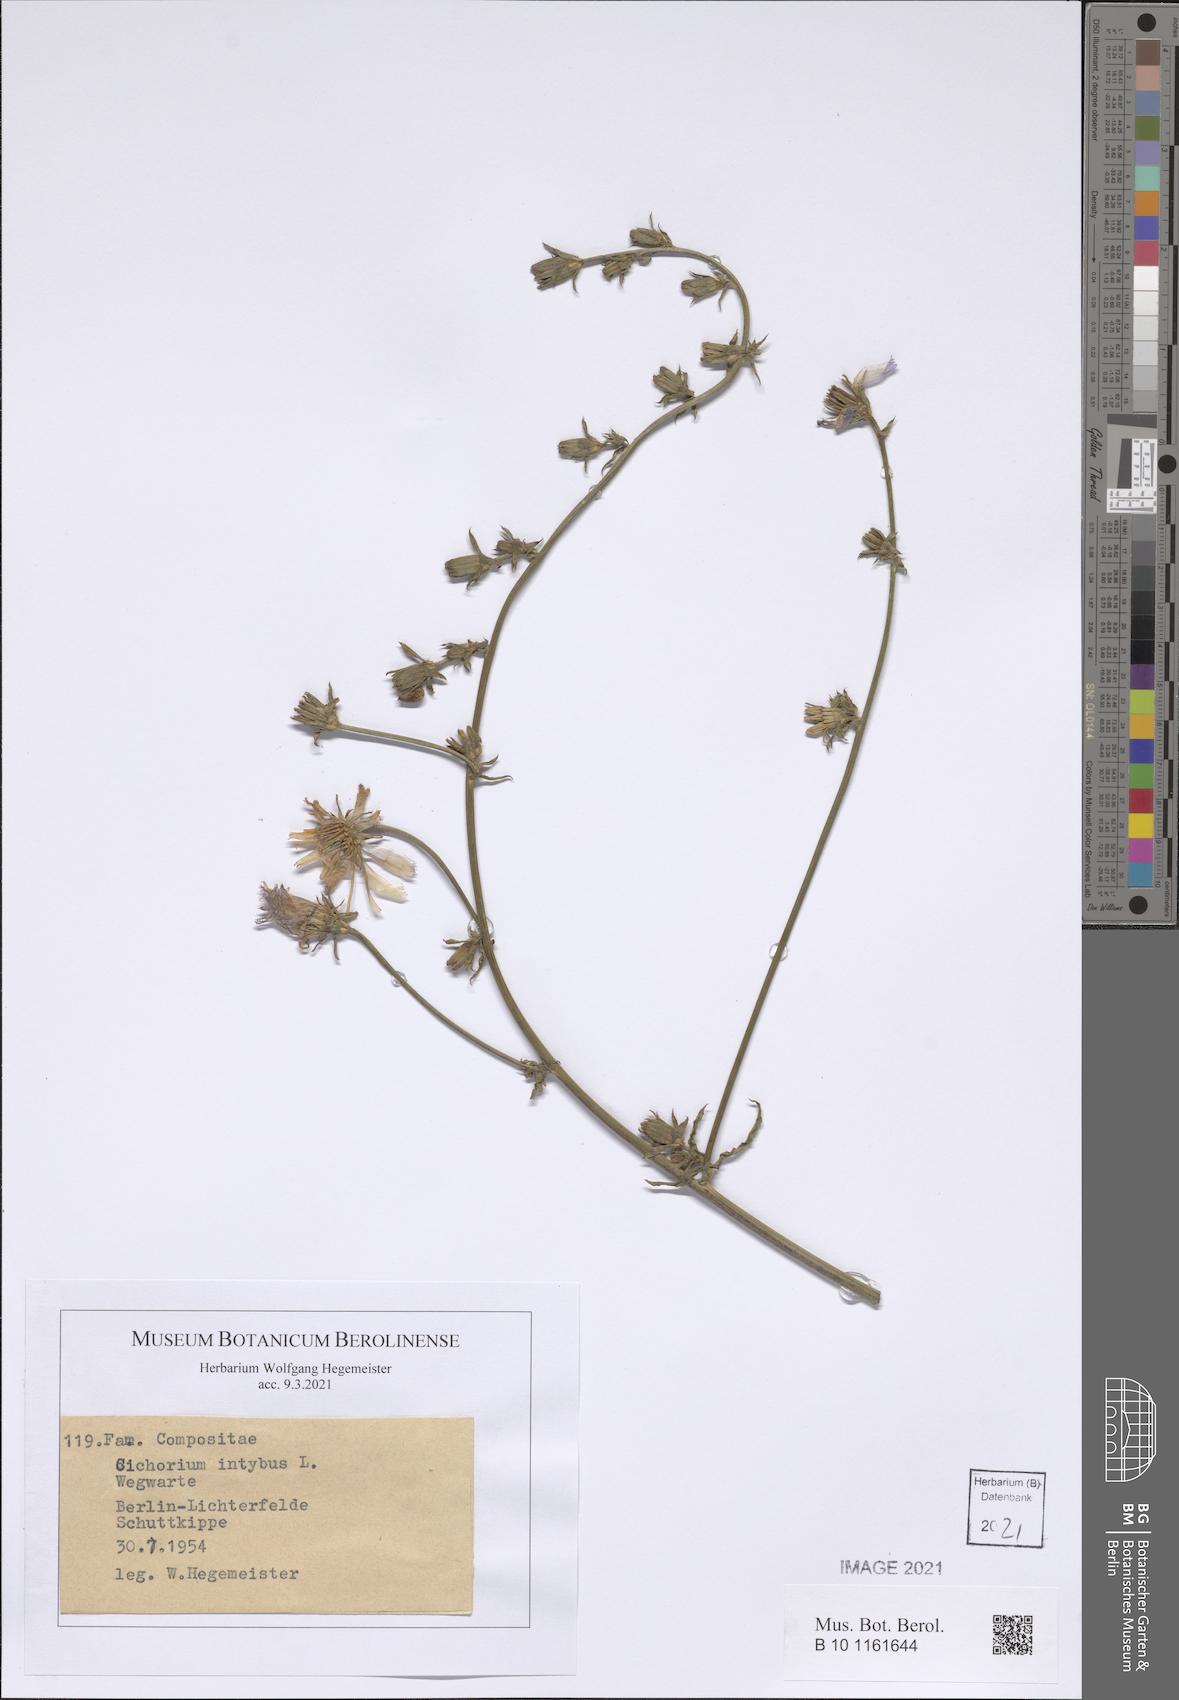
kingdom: Plantae
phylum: Tracheophyta
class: Magnoliopsida
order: Asterales
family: Asteraceae
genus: Cichorium
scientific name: Cichorium intybus
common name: Chicory
